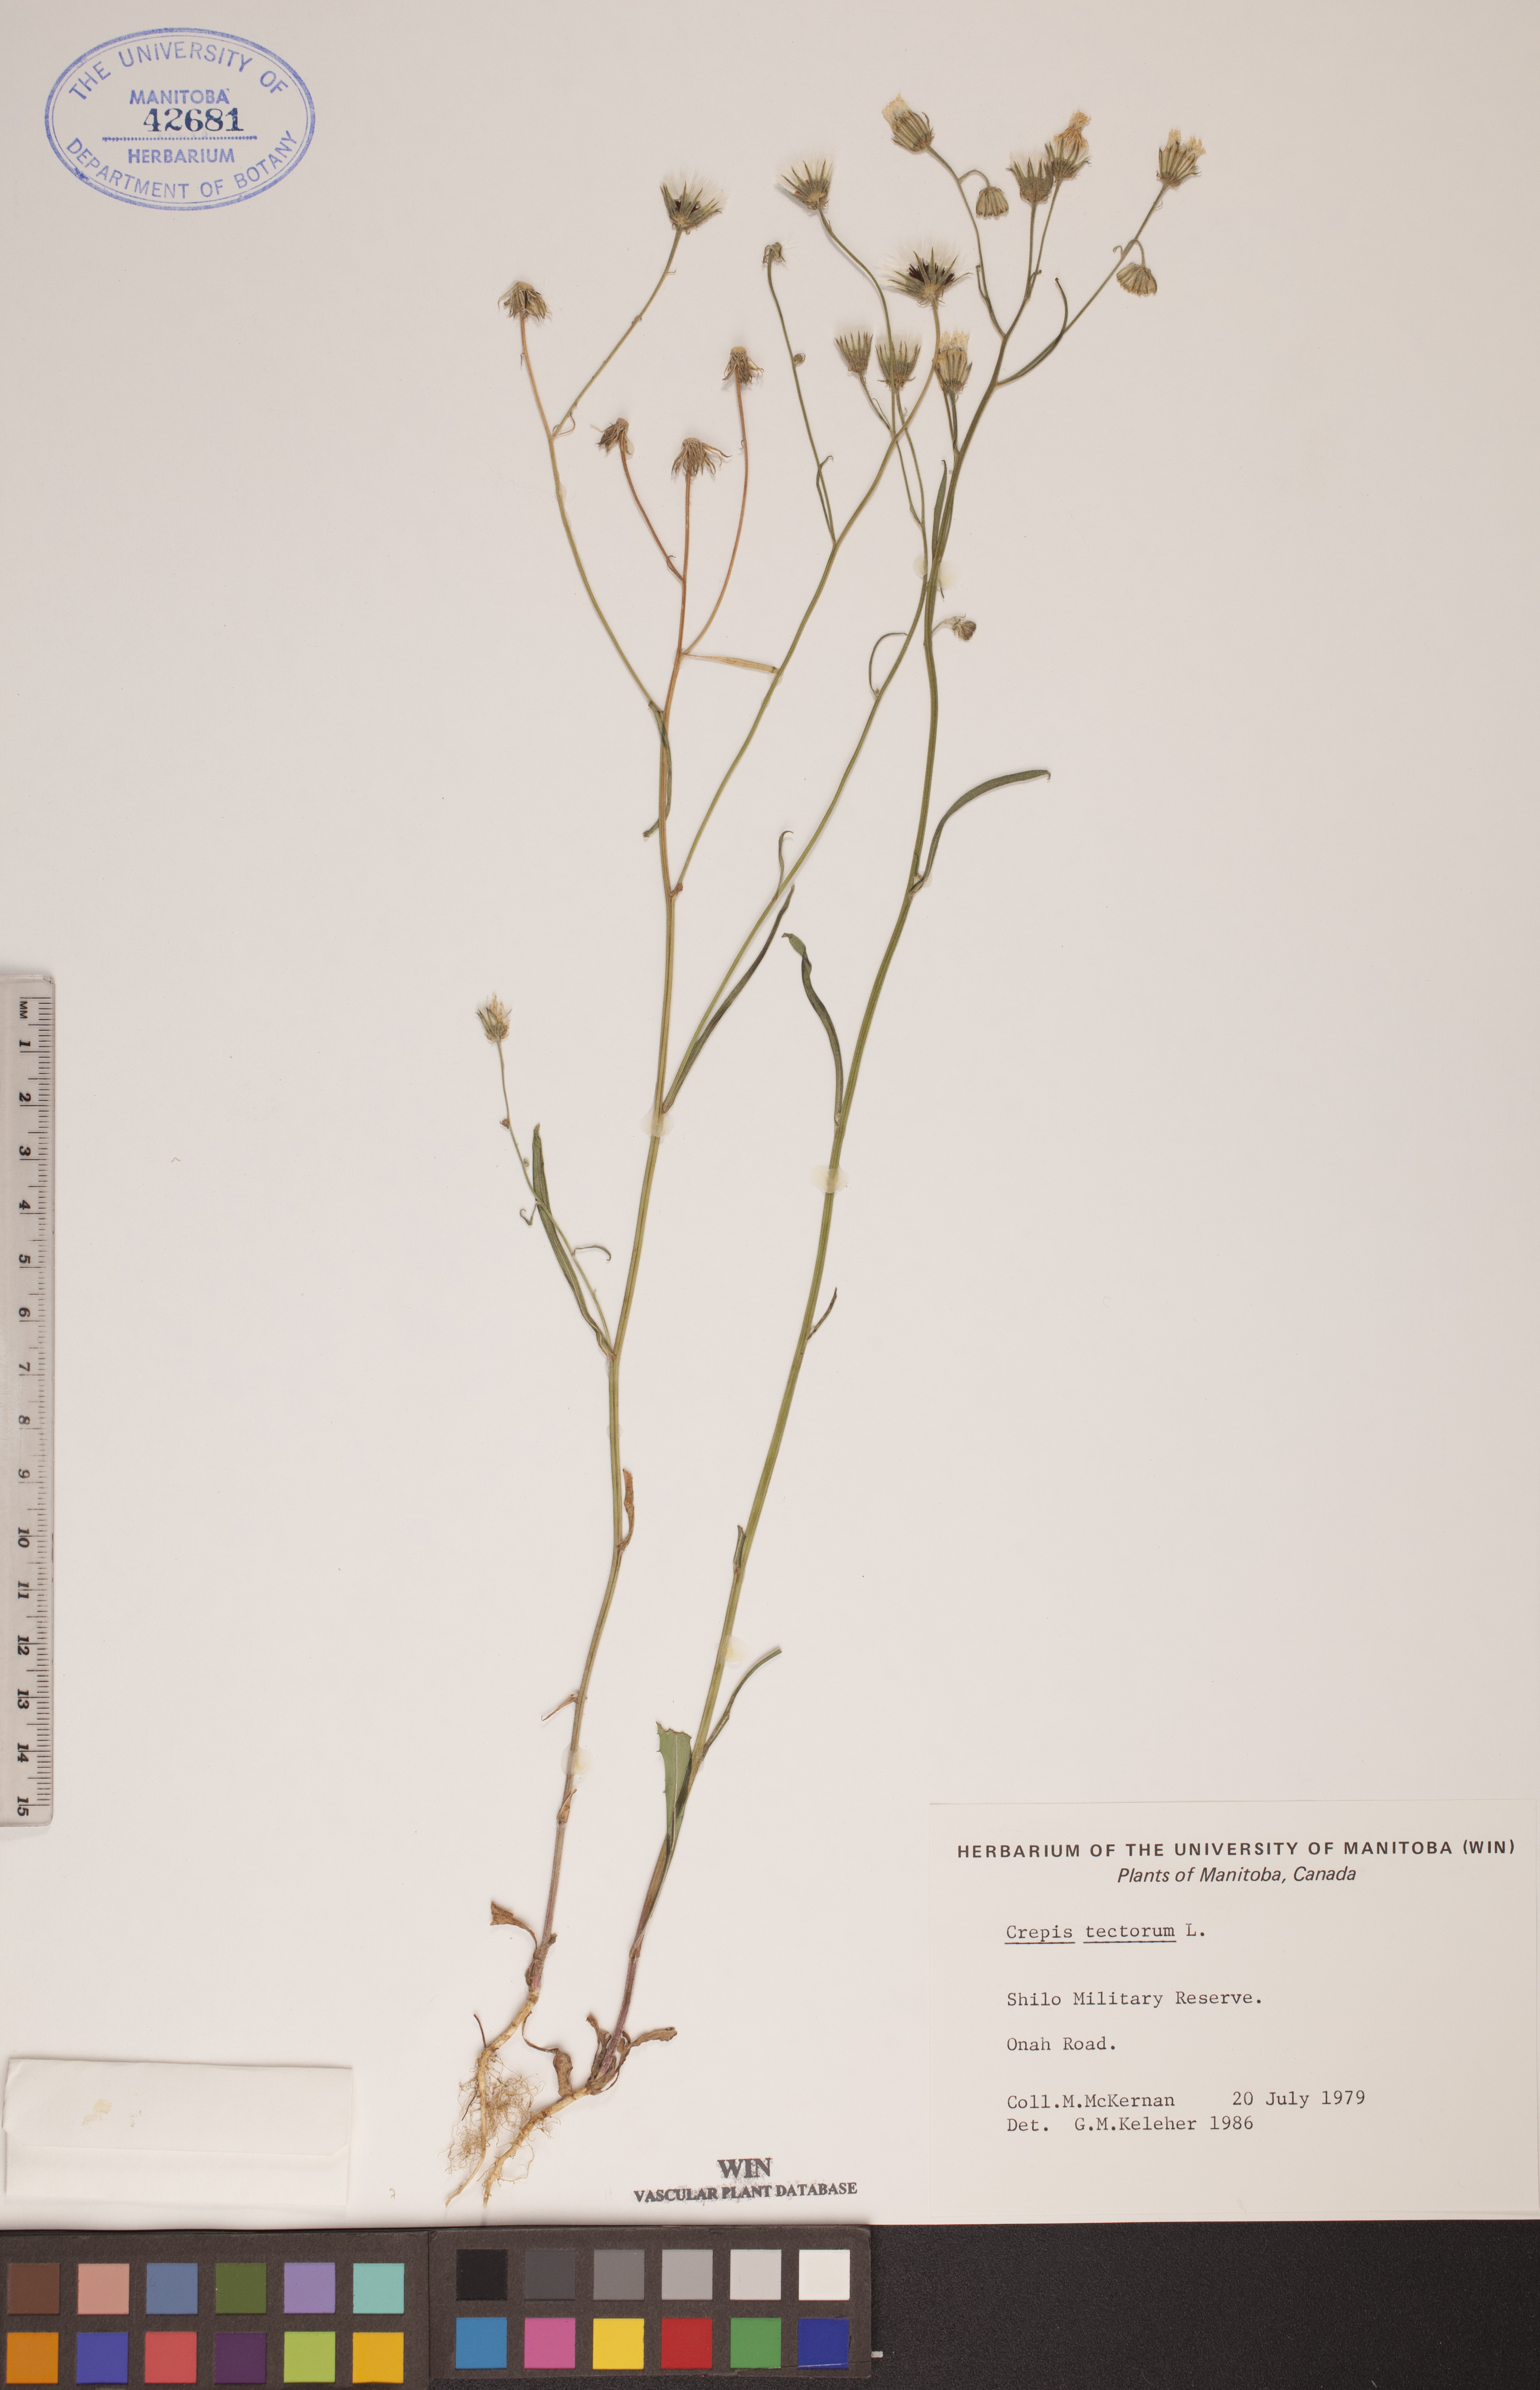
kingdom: Plantae
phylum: Tracheophyta
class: Magnoliopsida
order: Asterales
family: Asteraceae
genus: Crepis
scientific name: Crepis tectorum
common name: Narrow-leaved hawk's-beard
